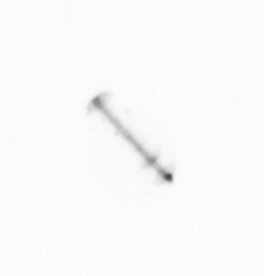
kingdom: Chromista
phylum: Ochrophyta
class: Bacillariophyceae
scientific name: Bacillariophyceae
